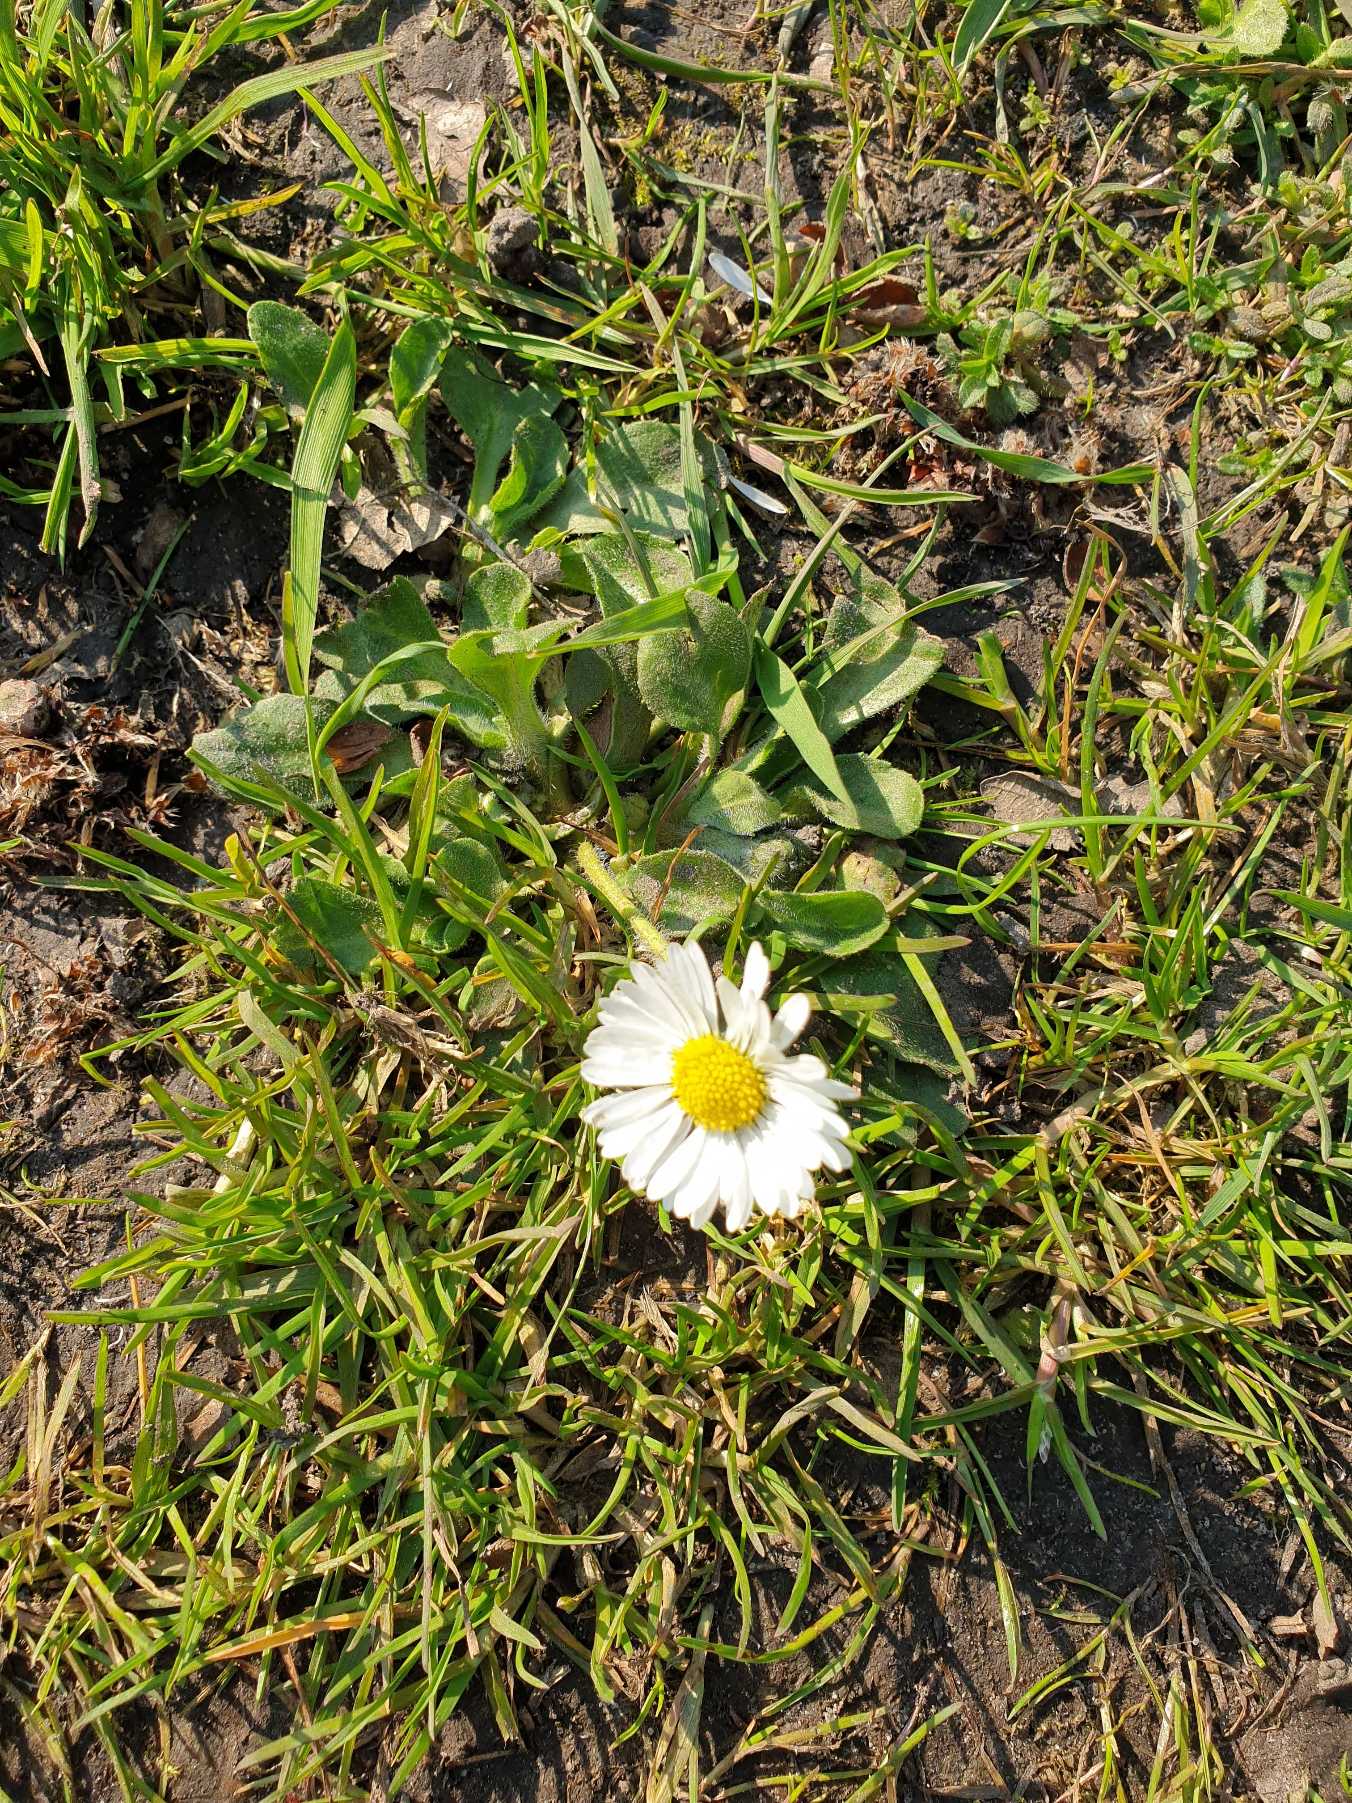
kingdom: Plantae
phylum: Tracheophyta
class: Magnoliopsida
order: Asterales
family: Asteraceae
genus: Bellis
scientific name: Bellis perennis
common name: Tusindfryd
